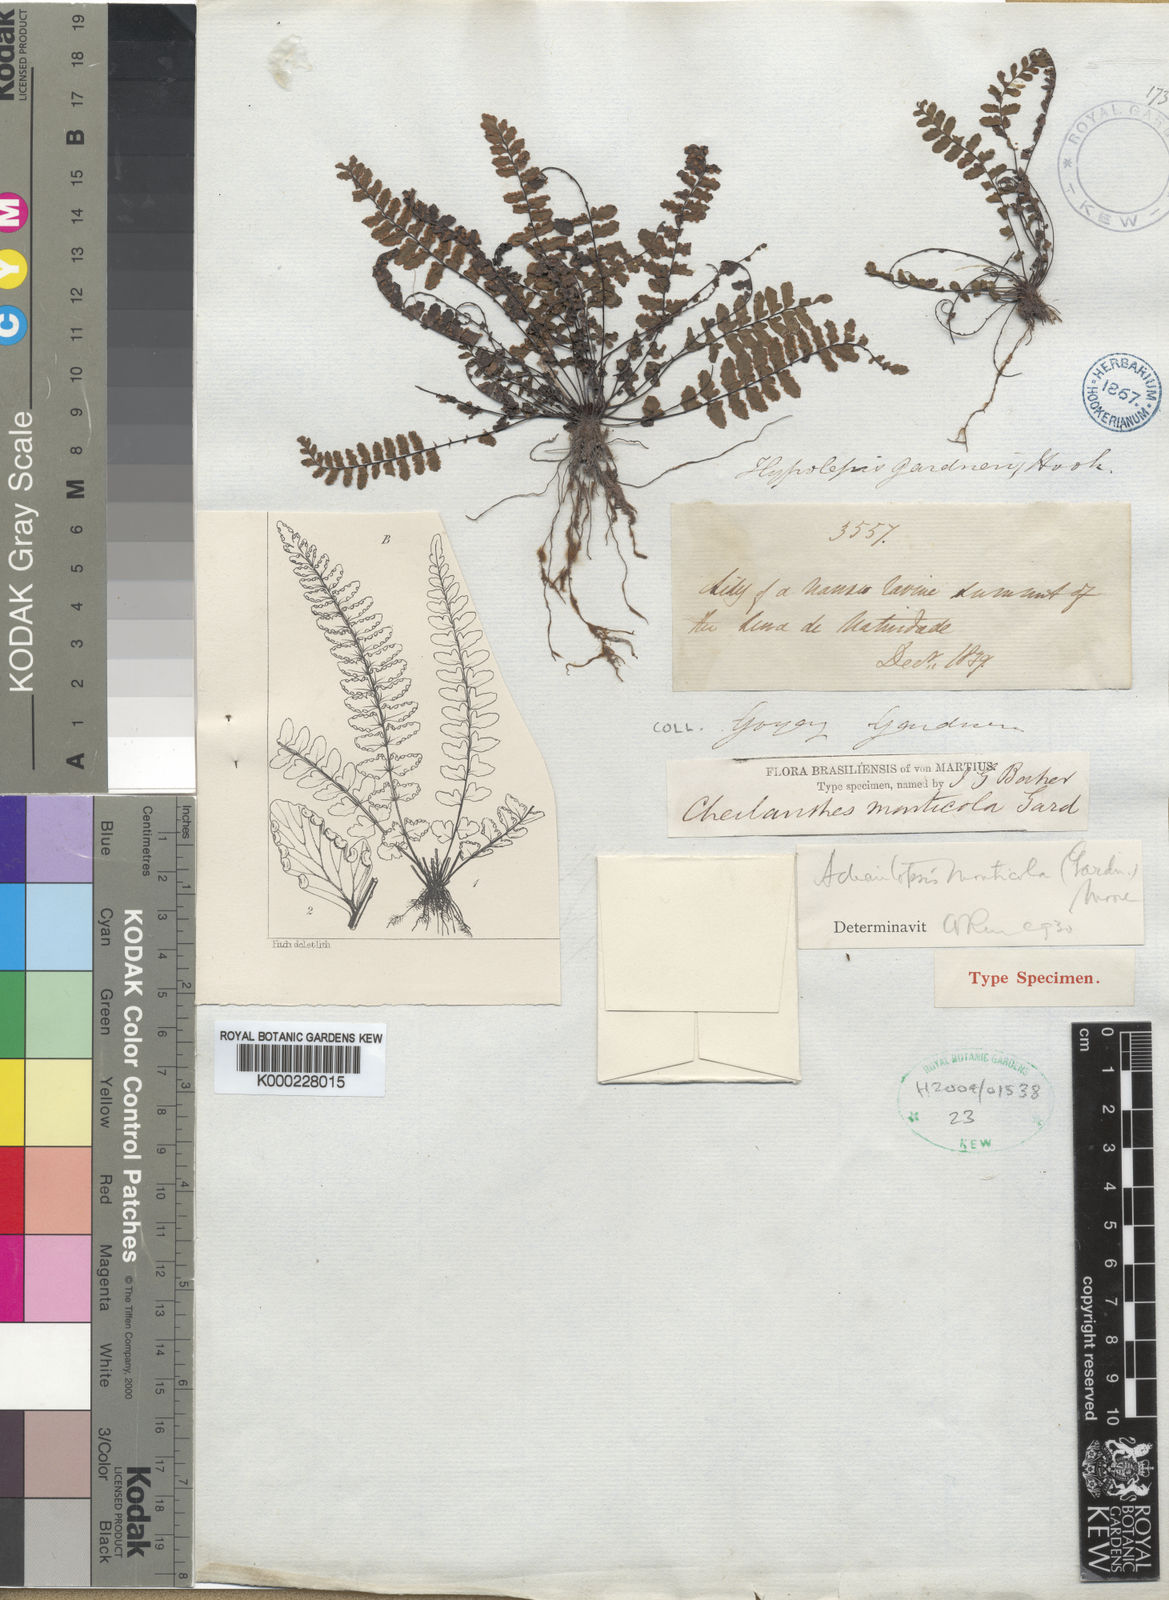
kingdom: Plantae
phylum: Tracheophyta
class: Polypodiopsida
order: Polypodiales
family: Pteridaceae
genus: Adiantopsis
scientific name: Adiantopsis monticola
